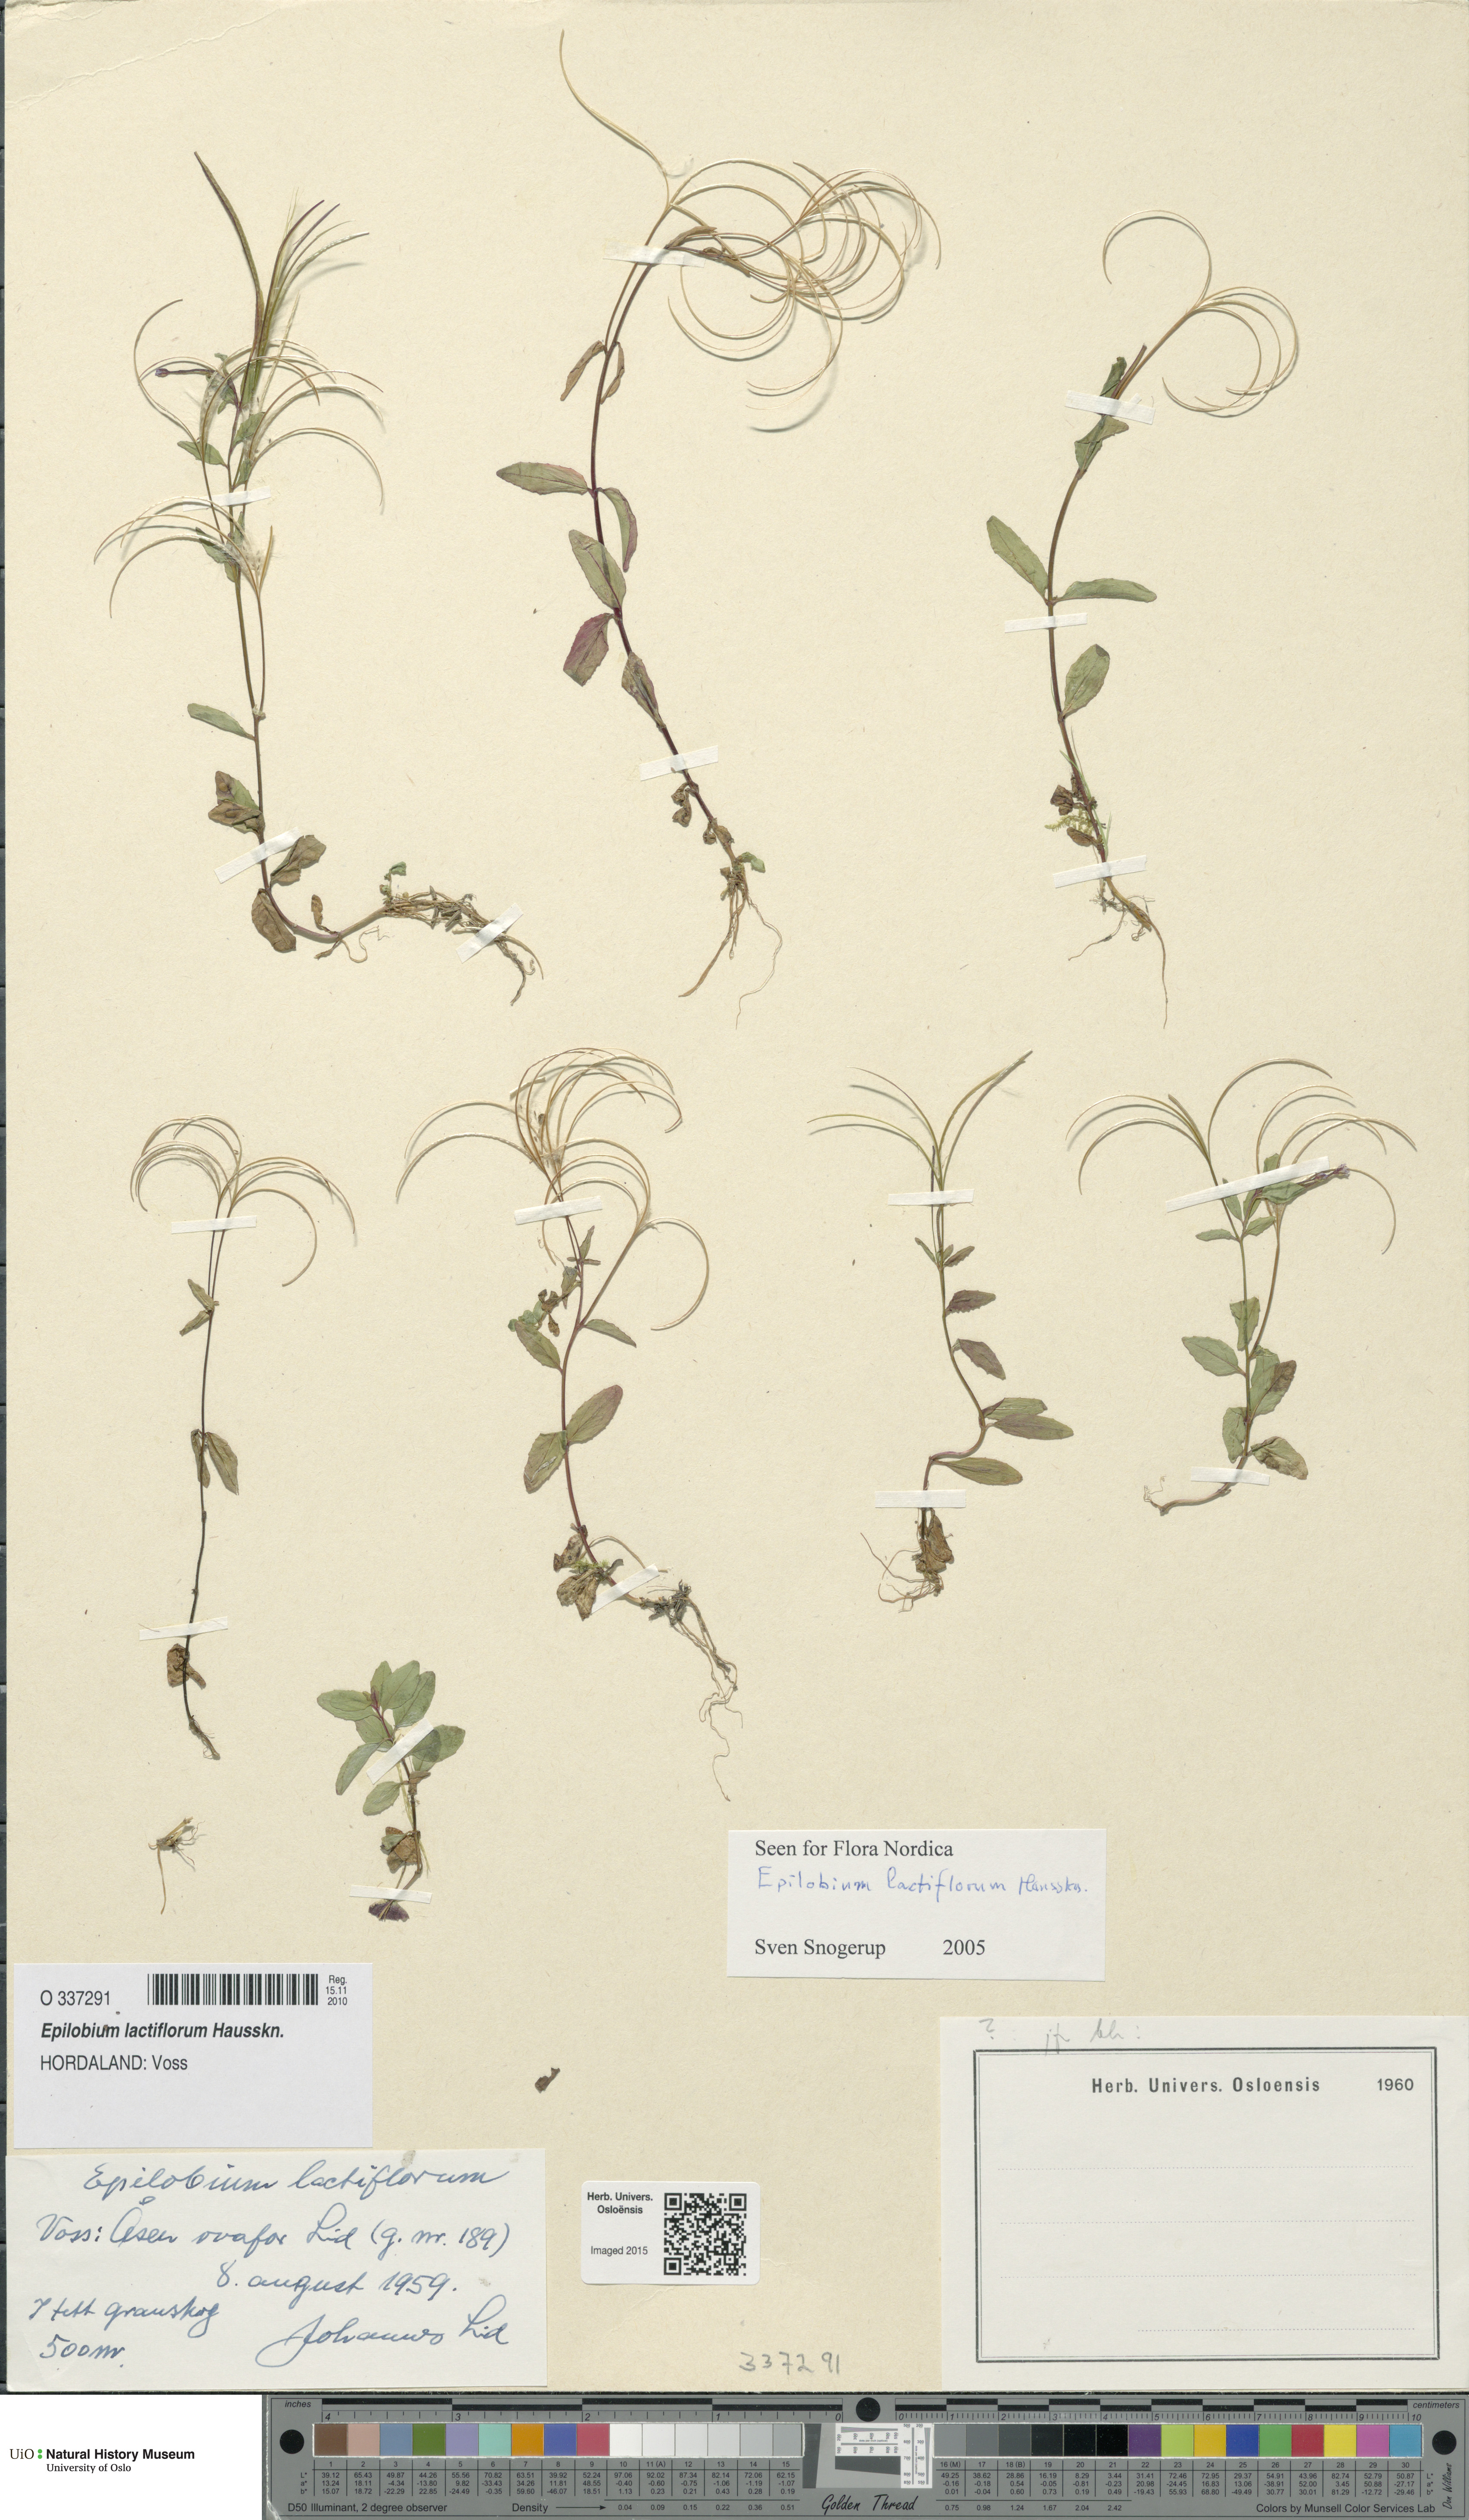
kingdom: Plantae
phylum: Tracheophyta
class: Magnoliopsida
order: Myrtales
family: Onagraceae
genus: Epilobium
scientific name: Epilobium lactiflorum
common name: Milkflower willowherb
